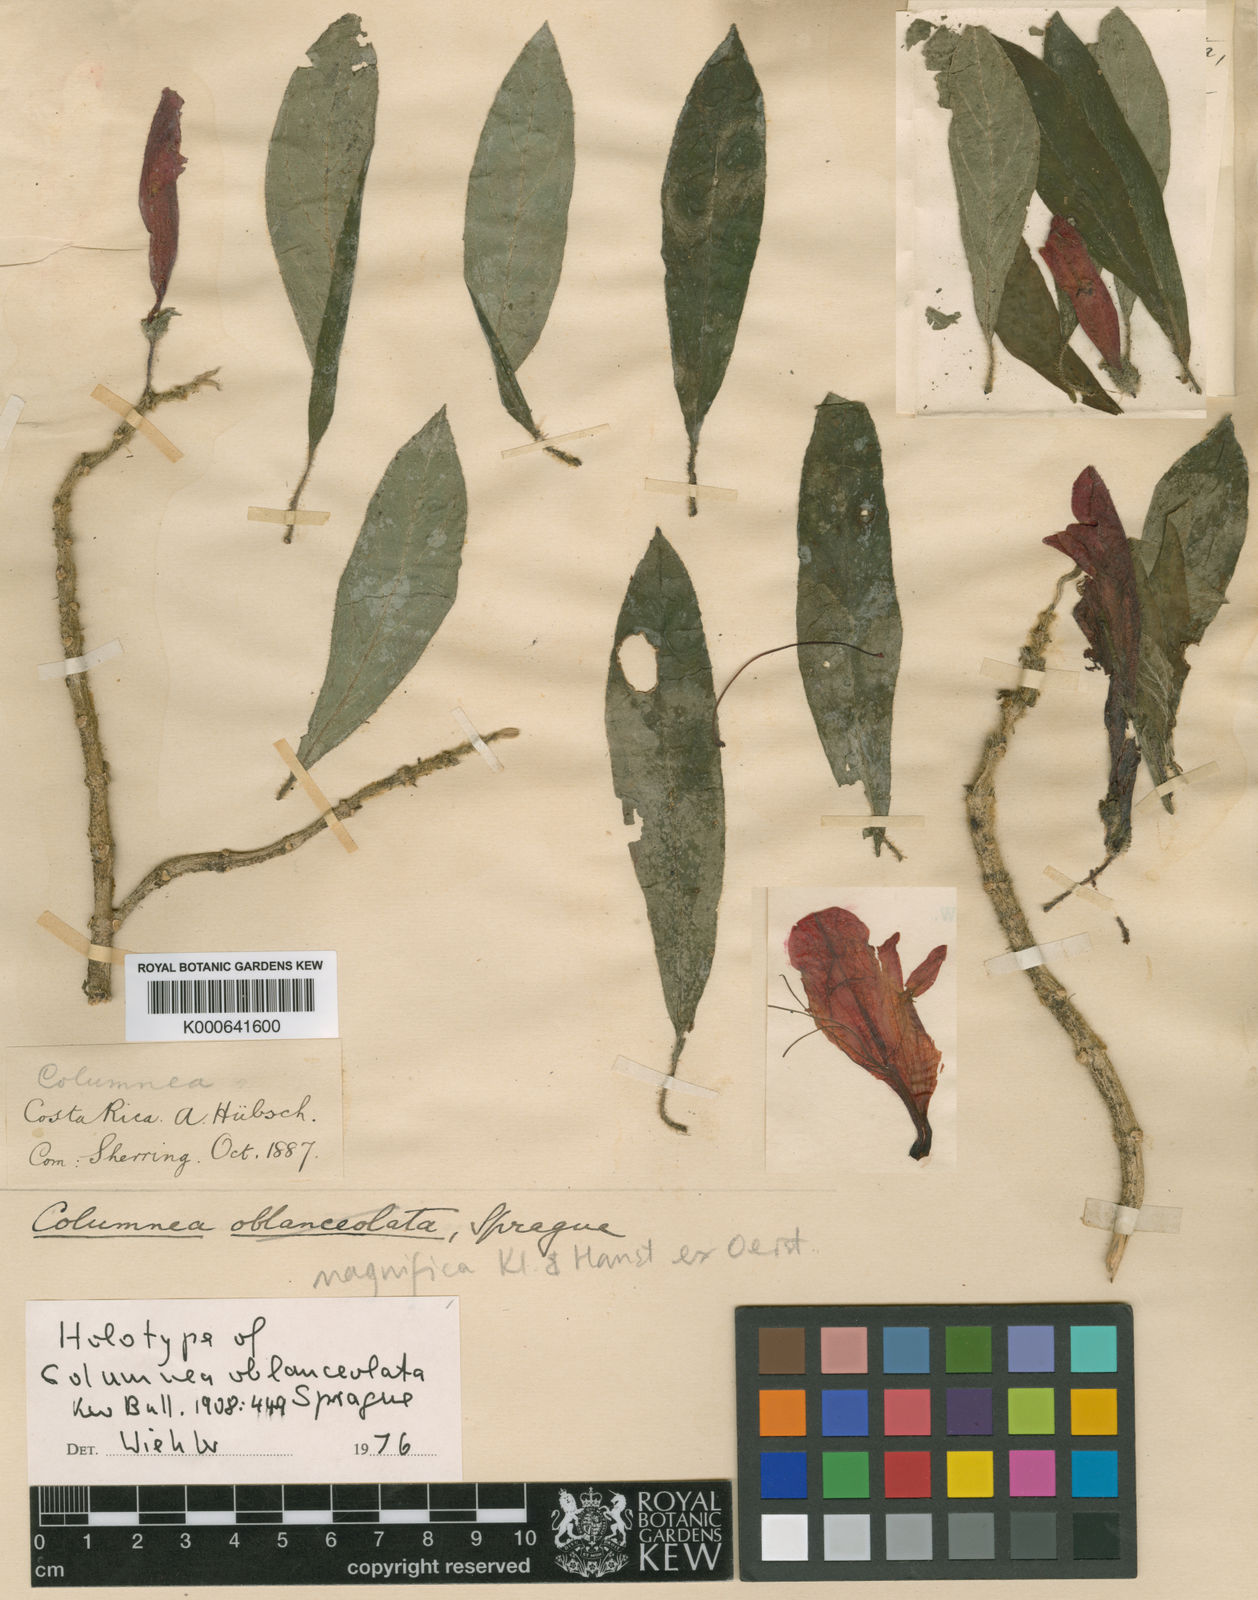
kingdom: Plantae
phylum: Tracheophyta
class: Magnoliopsida
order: Lamiales
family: Gesneriaceae
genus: Columnea
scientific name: Columnea magnifica
